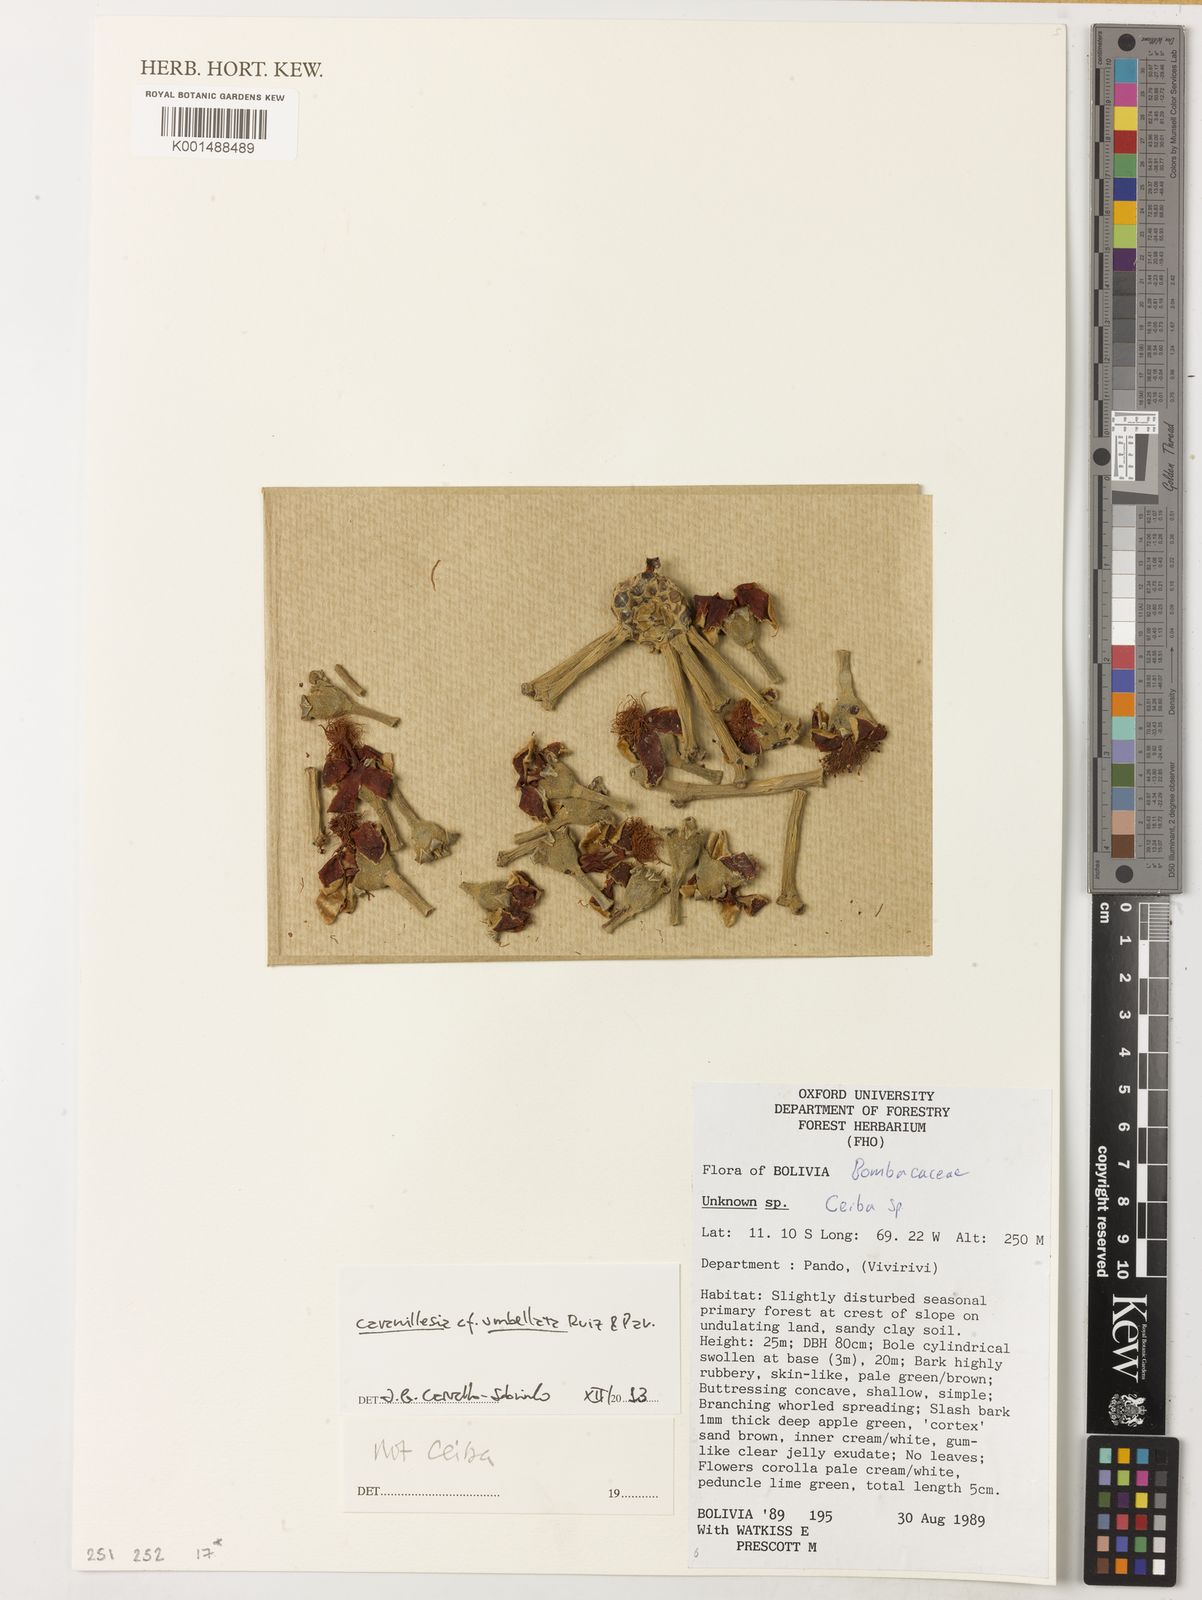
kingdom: Plantae
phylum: Tracheophyta
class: Magnoliopsida
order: Malvales
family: Malvaceae
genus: Cavanillesia
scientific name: Cavanillesia umbellata
